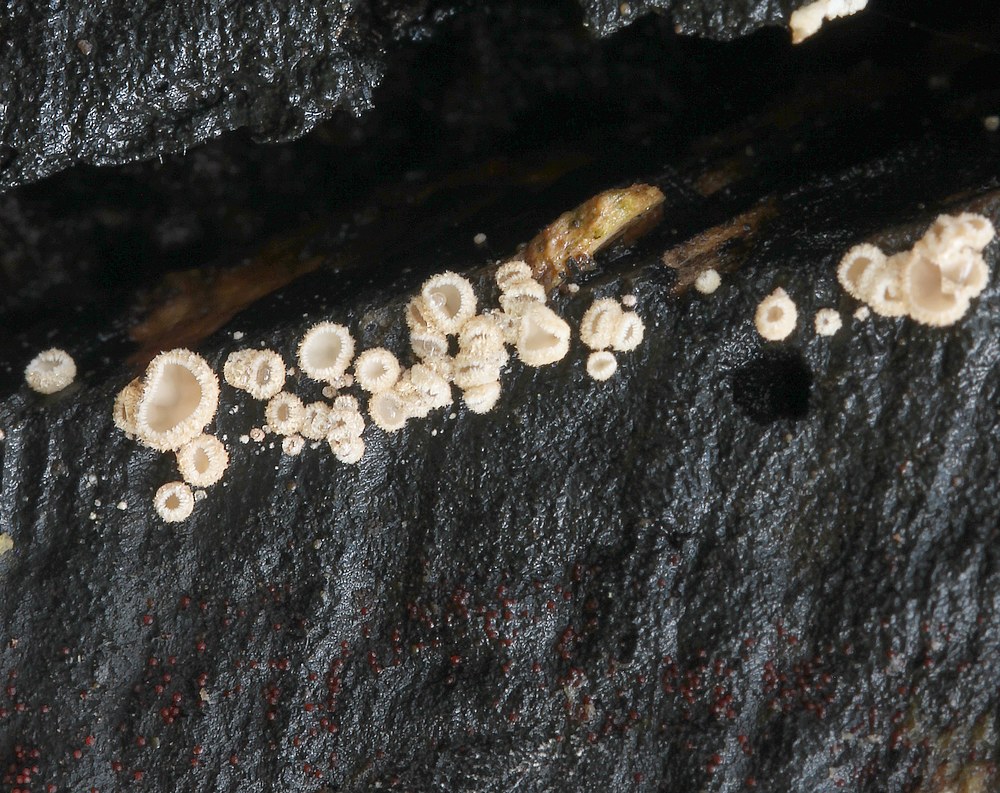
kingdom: Fungi
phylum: Ascomycota
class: Leotiomycetes
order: Helotiales
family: Lachnaceae
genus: Trichopeziza
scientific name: Trichopeziza subsulphurea
